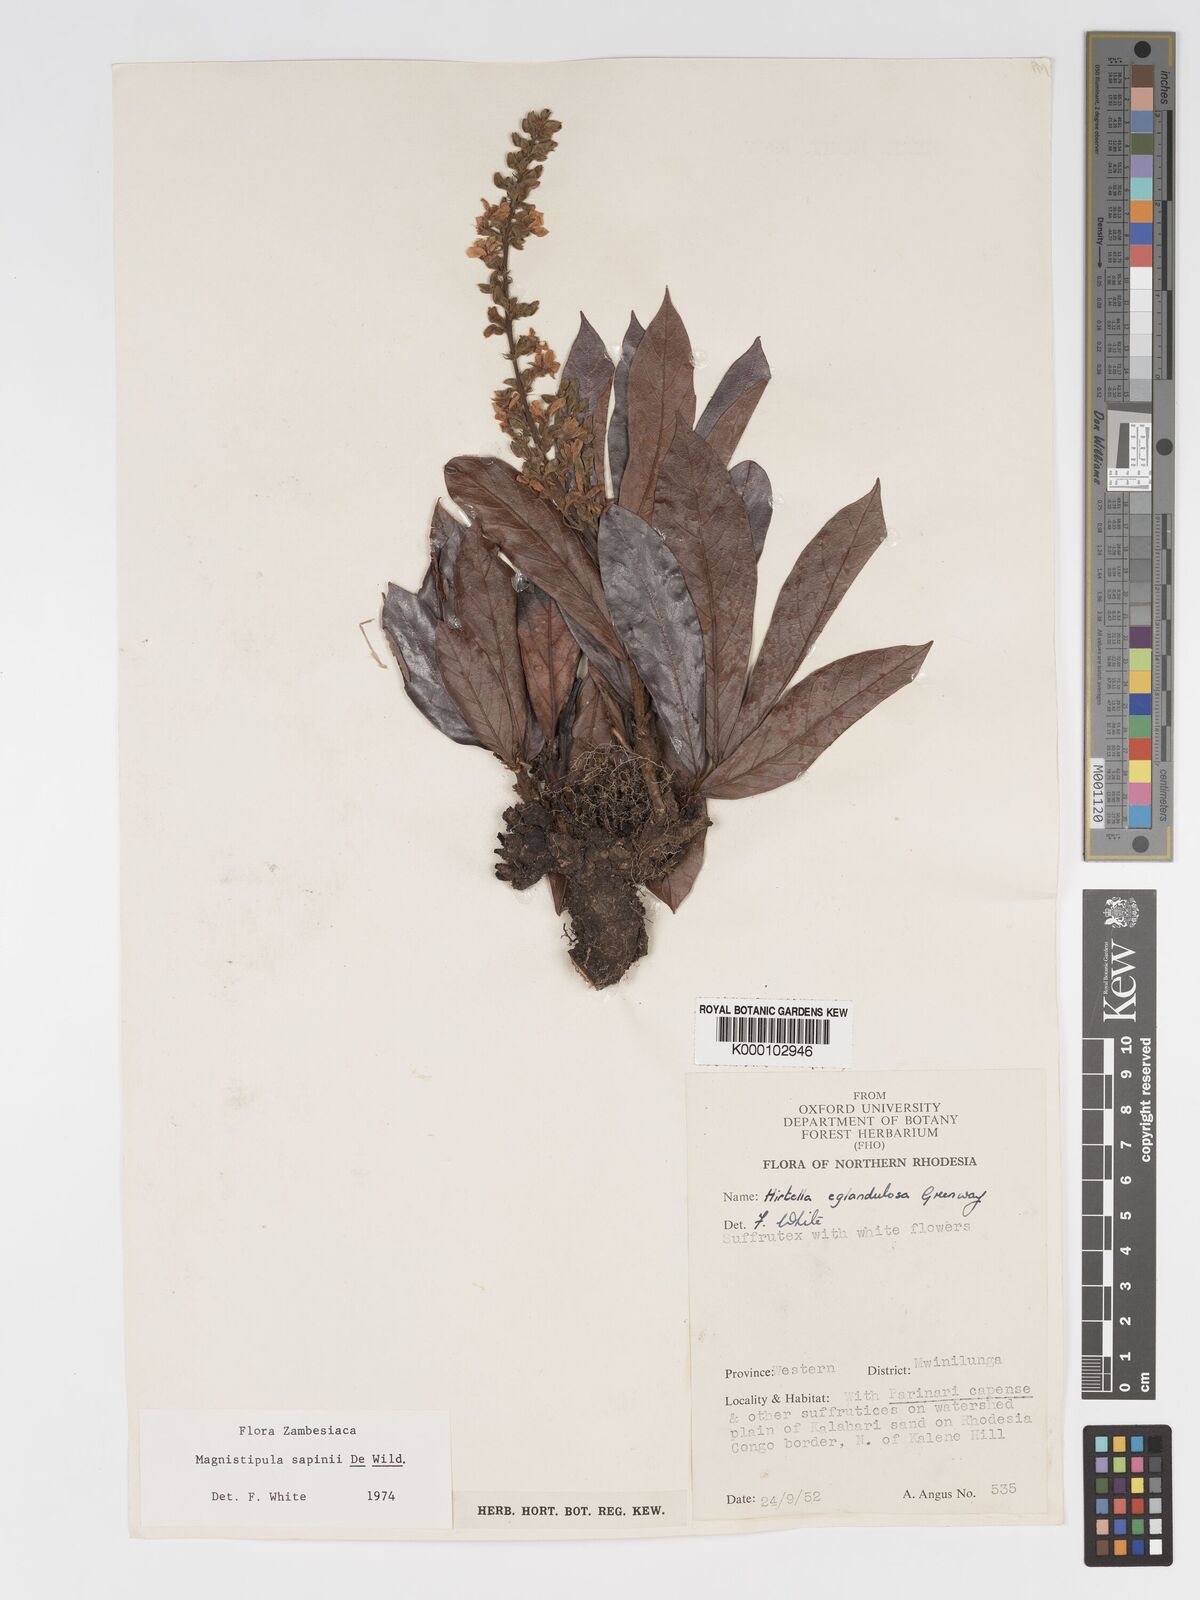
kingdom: Plantae
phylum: Tracheophyta
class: Magnoliopsida
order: Malpighiales
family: Chrysobalanaceae
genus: Magnistipula
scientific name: Magnistipula sapinii
